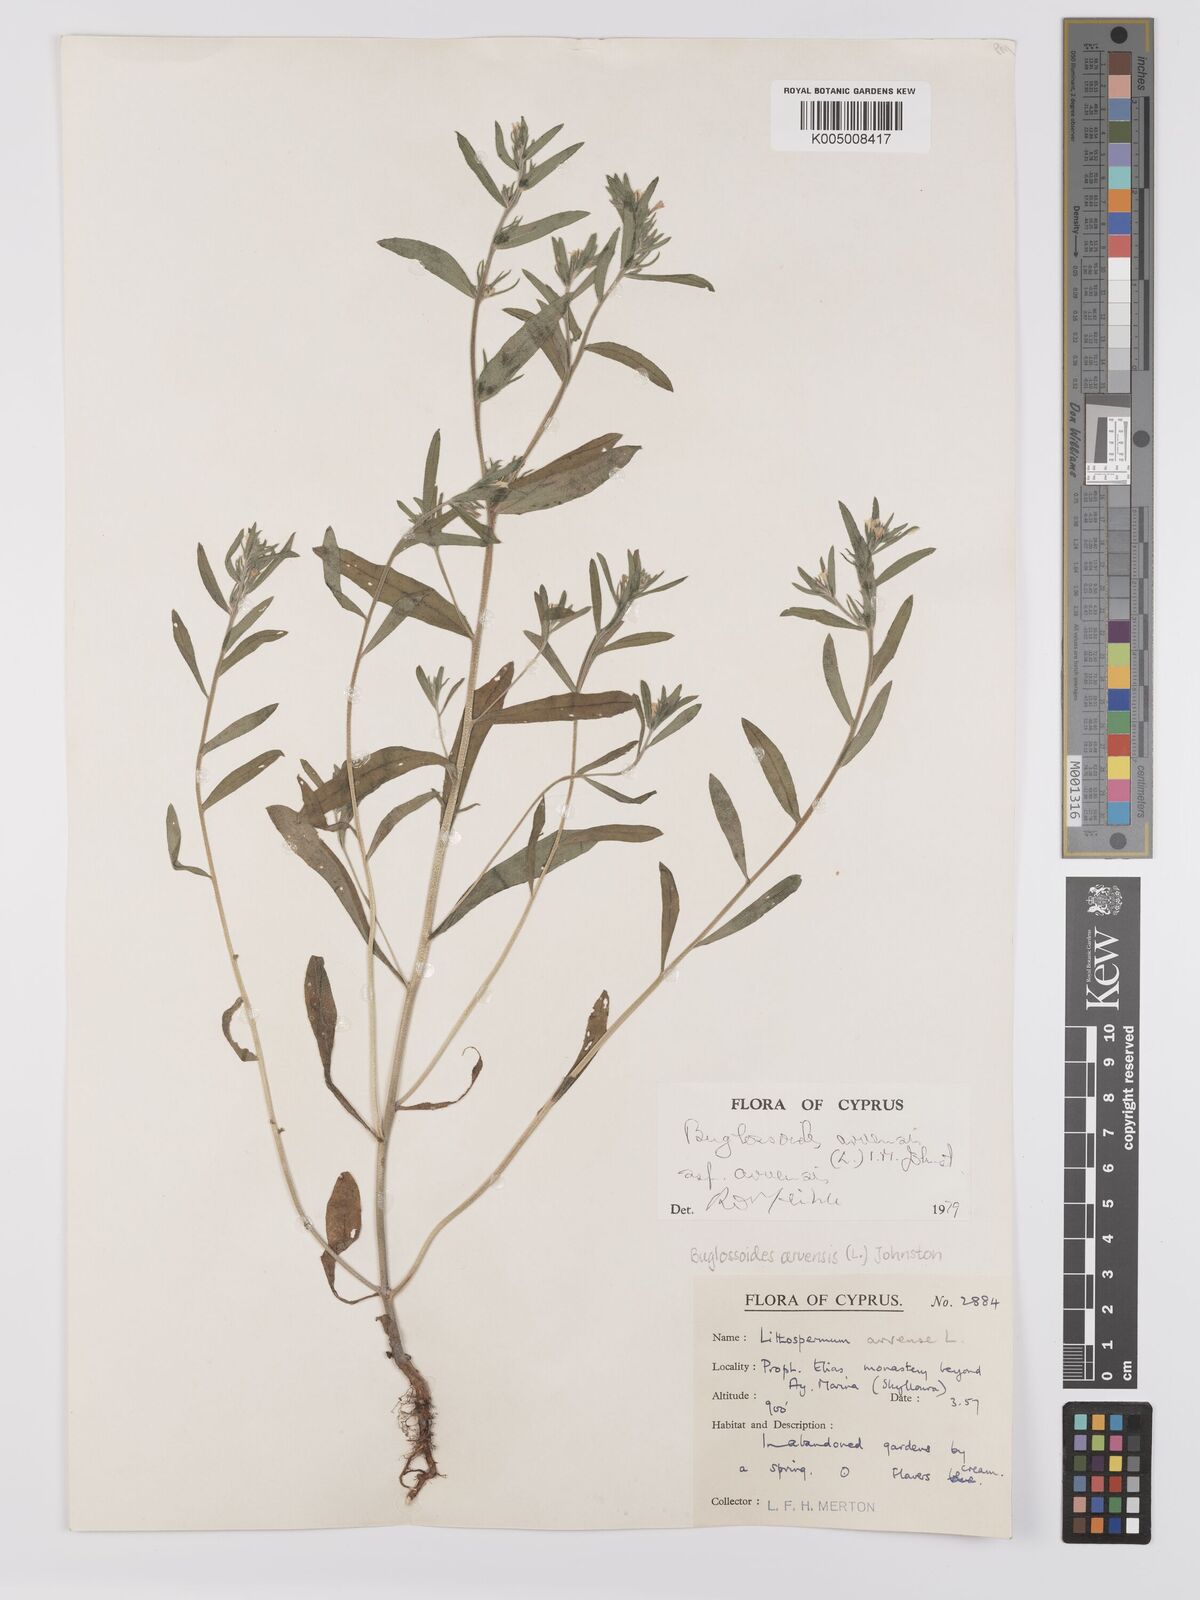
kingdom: Plantae
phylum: Tracheophyta
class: Magnoliopsida
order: Boraginales
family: Boraginaceae
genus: Buglossoides
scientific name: Buglossoides arvensis
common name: Corn gromwell
